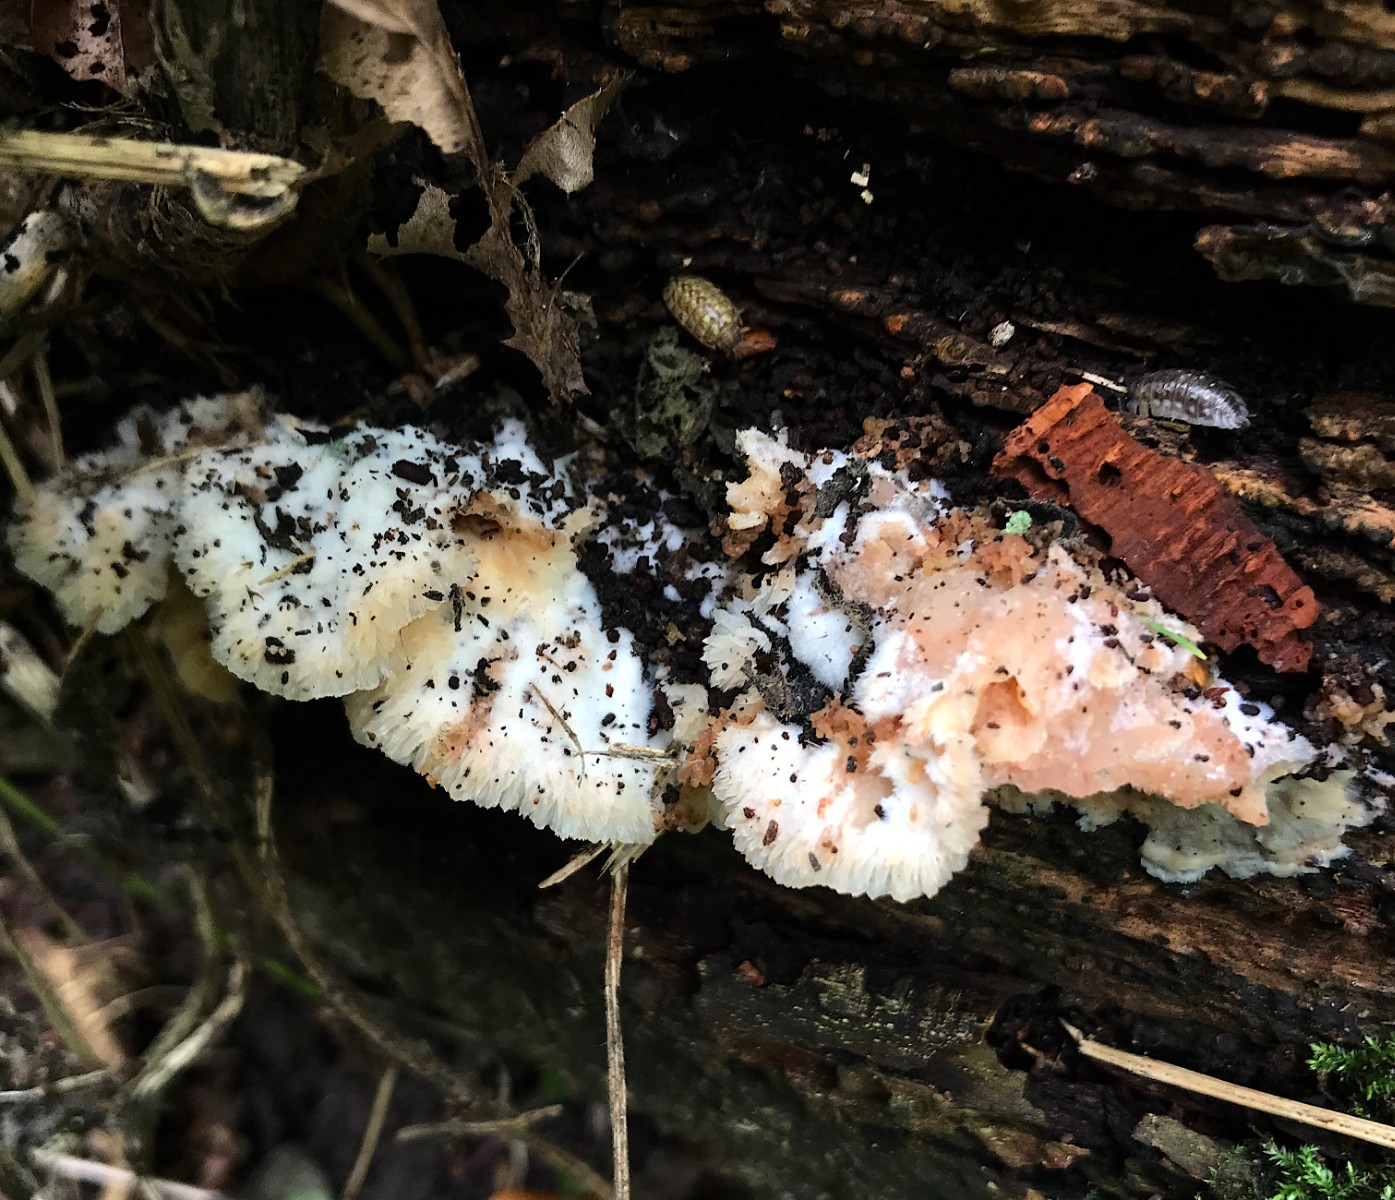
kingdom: Fungi
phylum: Basidiomycota
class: Agaricomycetes
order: Polyporales
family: Meruliaceae
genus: Phlebia
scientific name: Phlebia tremellosa
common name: bævrende åresvamp
